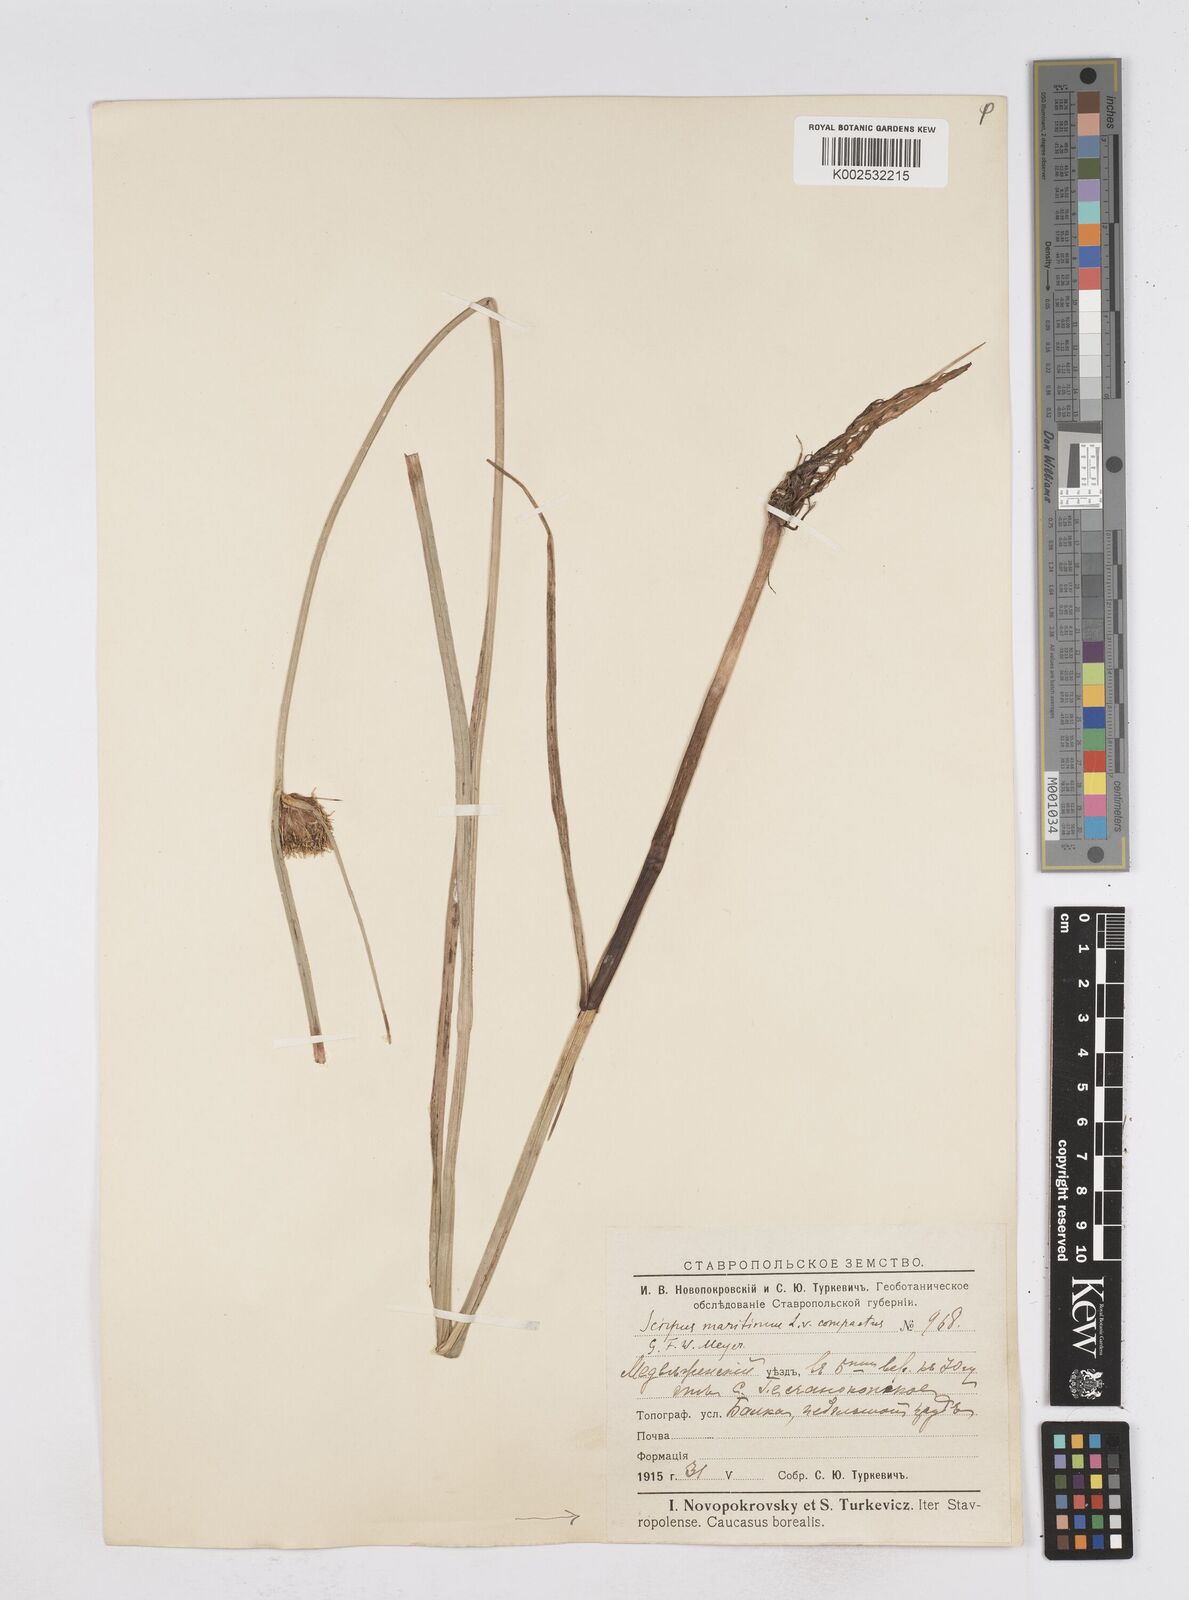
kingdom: Plantae
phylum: Tracheophyta
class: Liliopsida
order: Poales
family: Cyperaceae
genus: Bolboschoenus
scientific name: Bolboschoenus maritimus
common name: Sea club-rush
